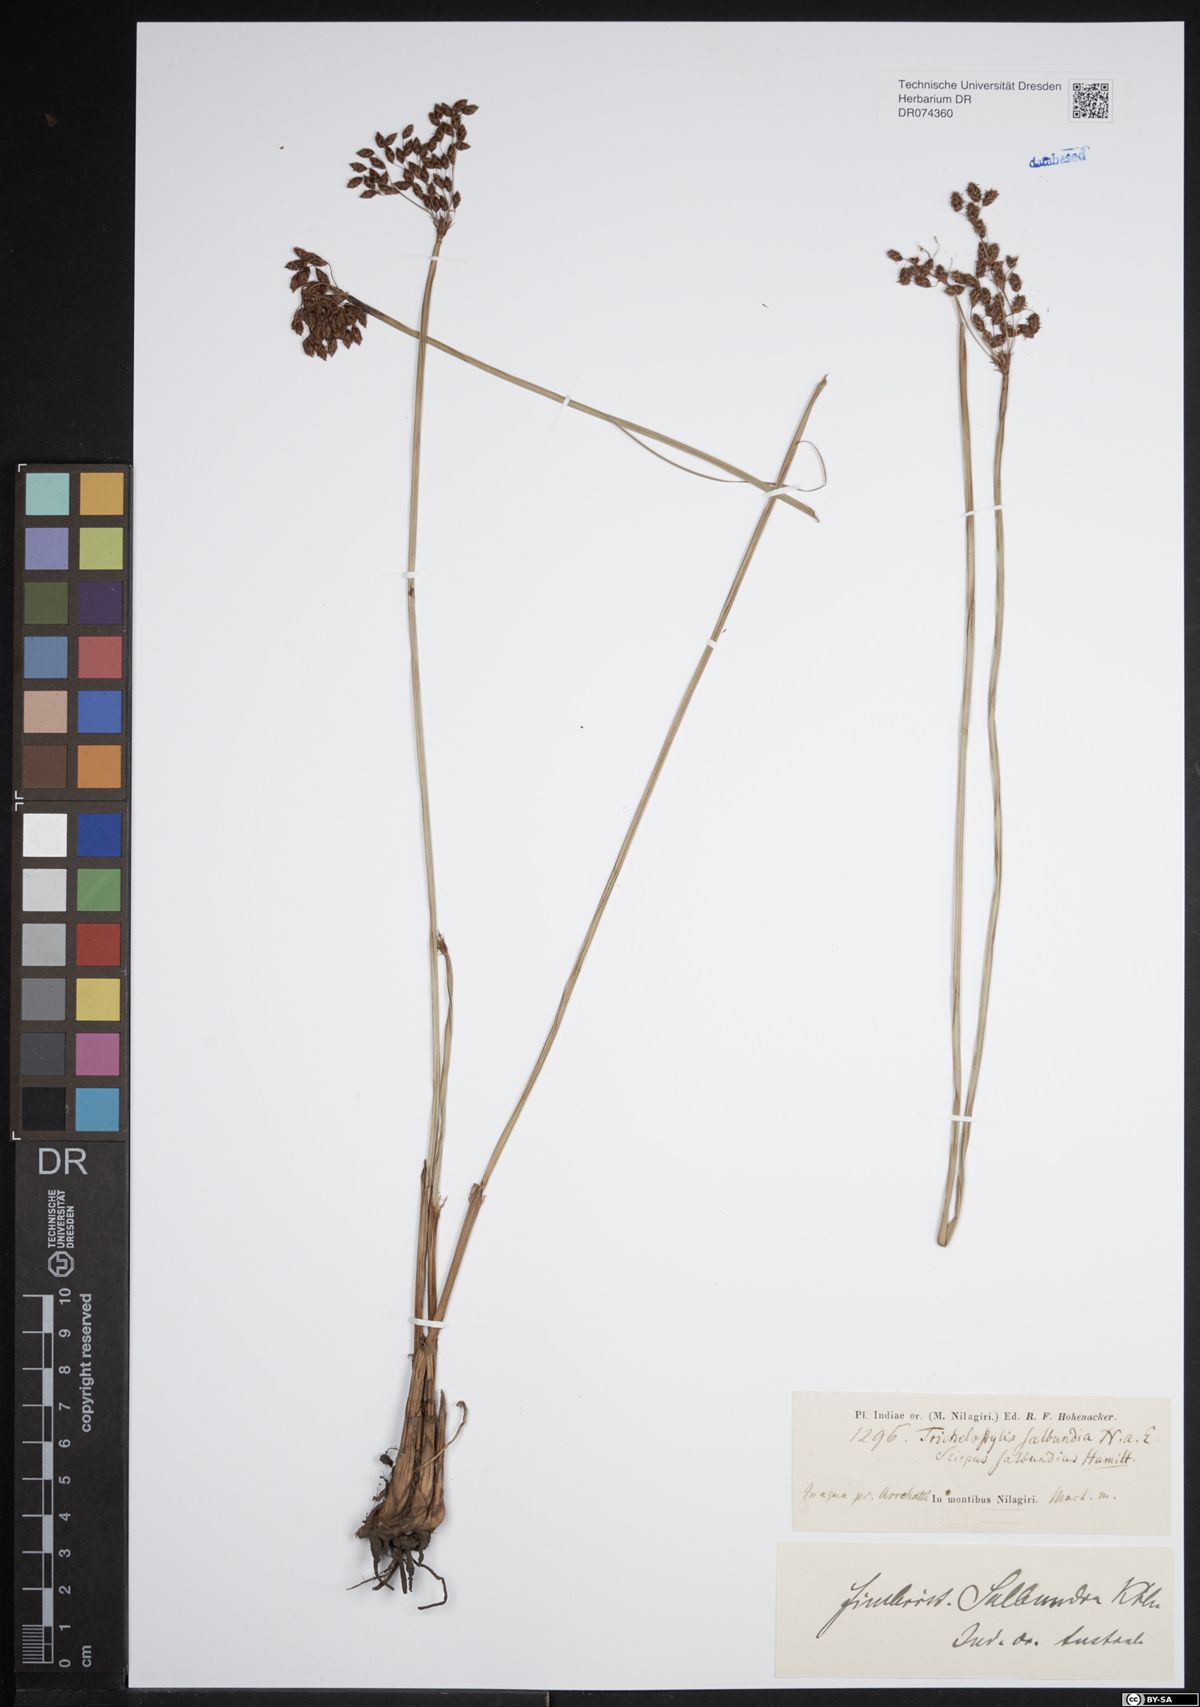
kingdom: Plantae
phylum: Tracheophyta
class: Liliopsida
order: Poales
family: Cyperaceae
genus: Fimbristylis
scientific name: Fimbristylis
